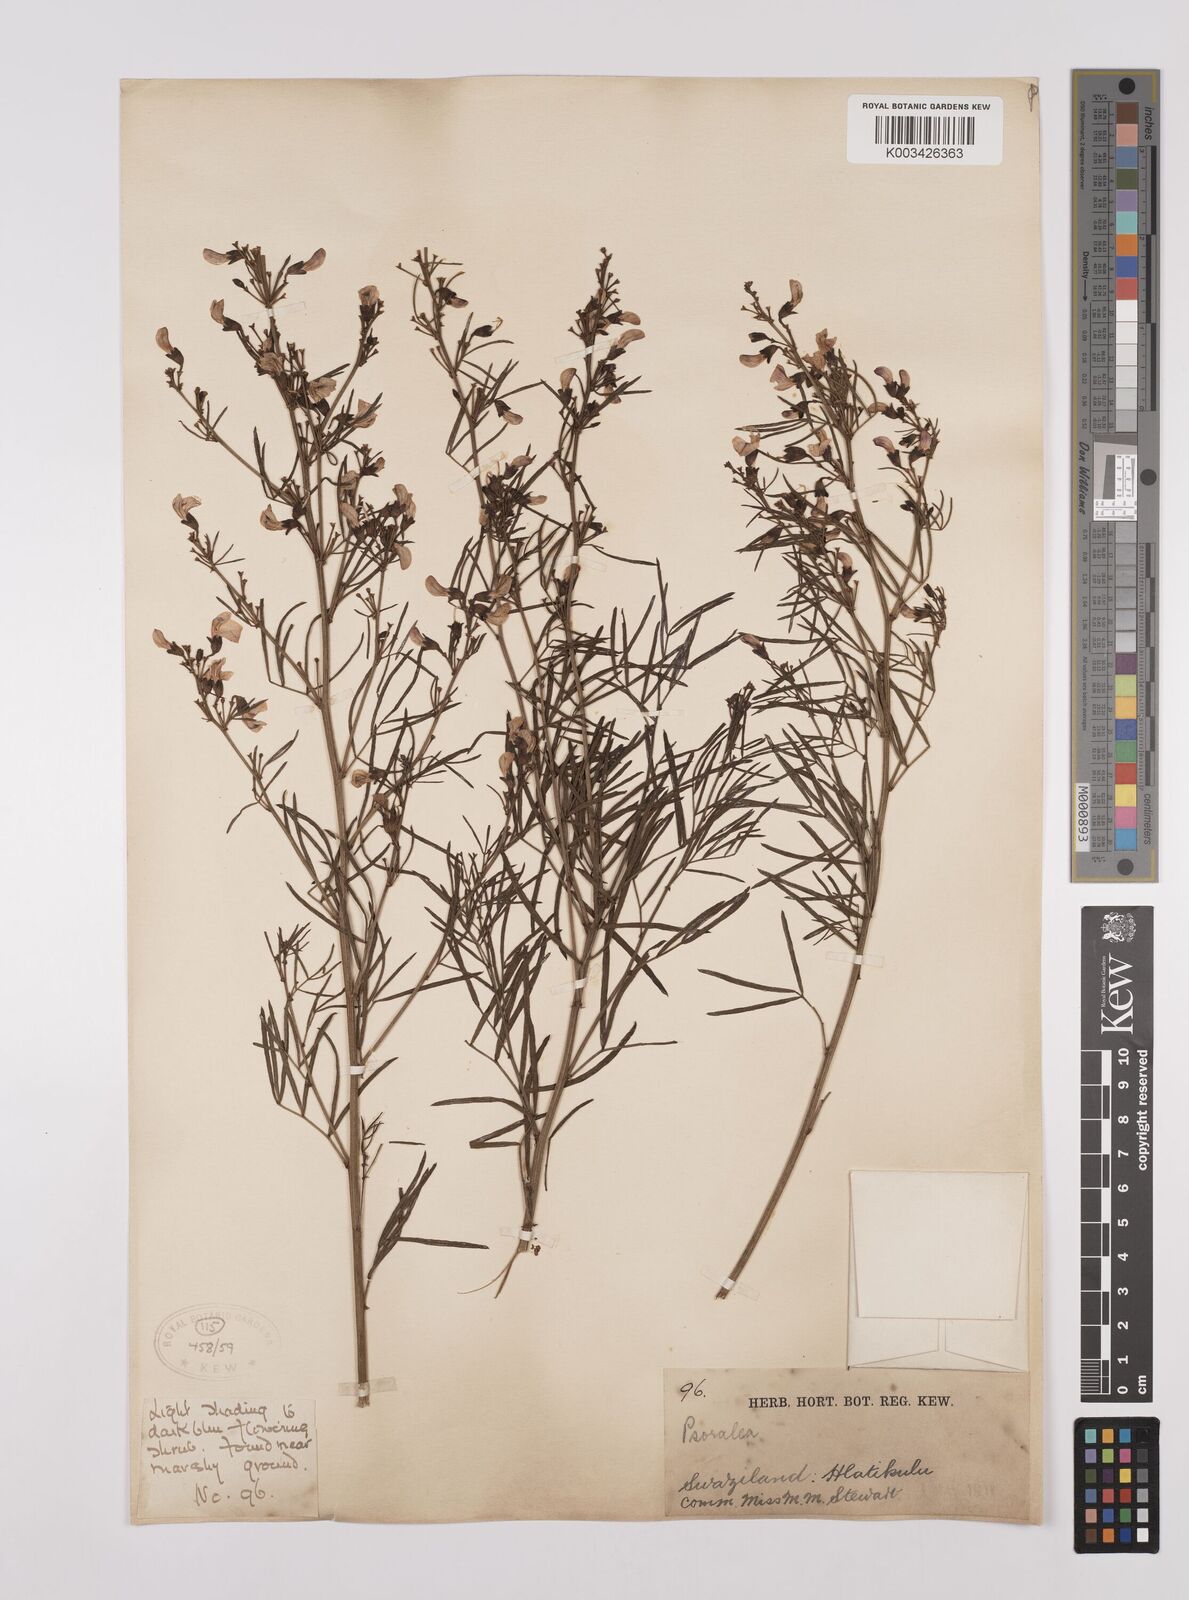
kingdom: Plantae
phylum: Tracheophyta
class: Magnoliopsida
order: Fabales
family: Fabaceae
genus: Psoralea
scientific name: Psoralea rhizotoma
